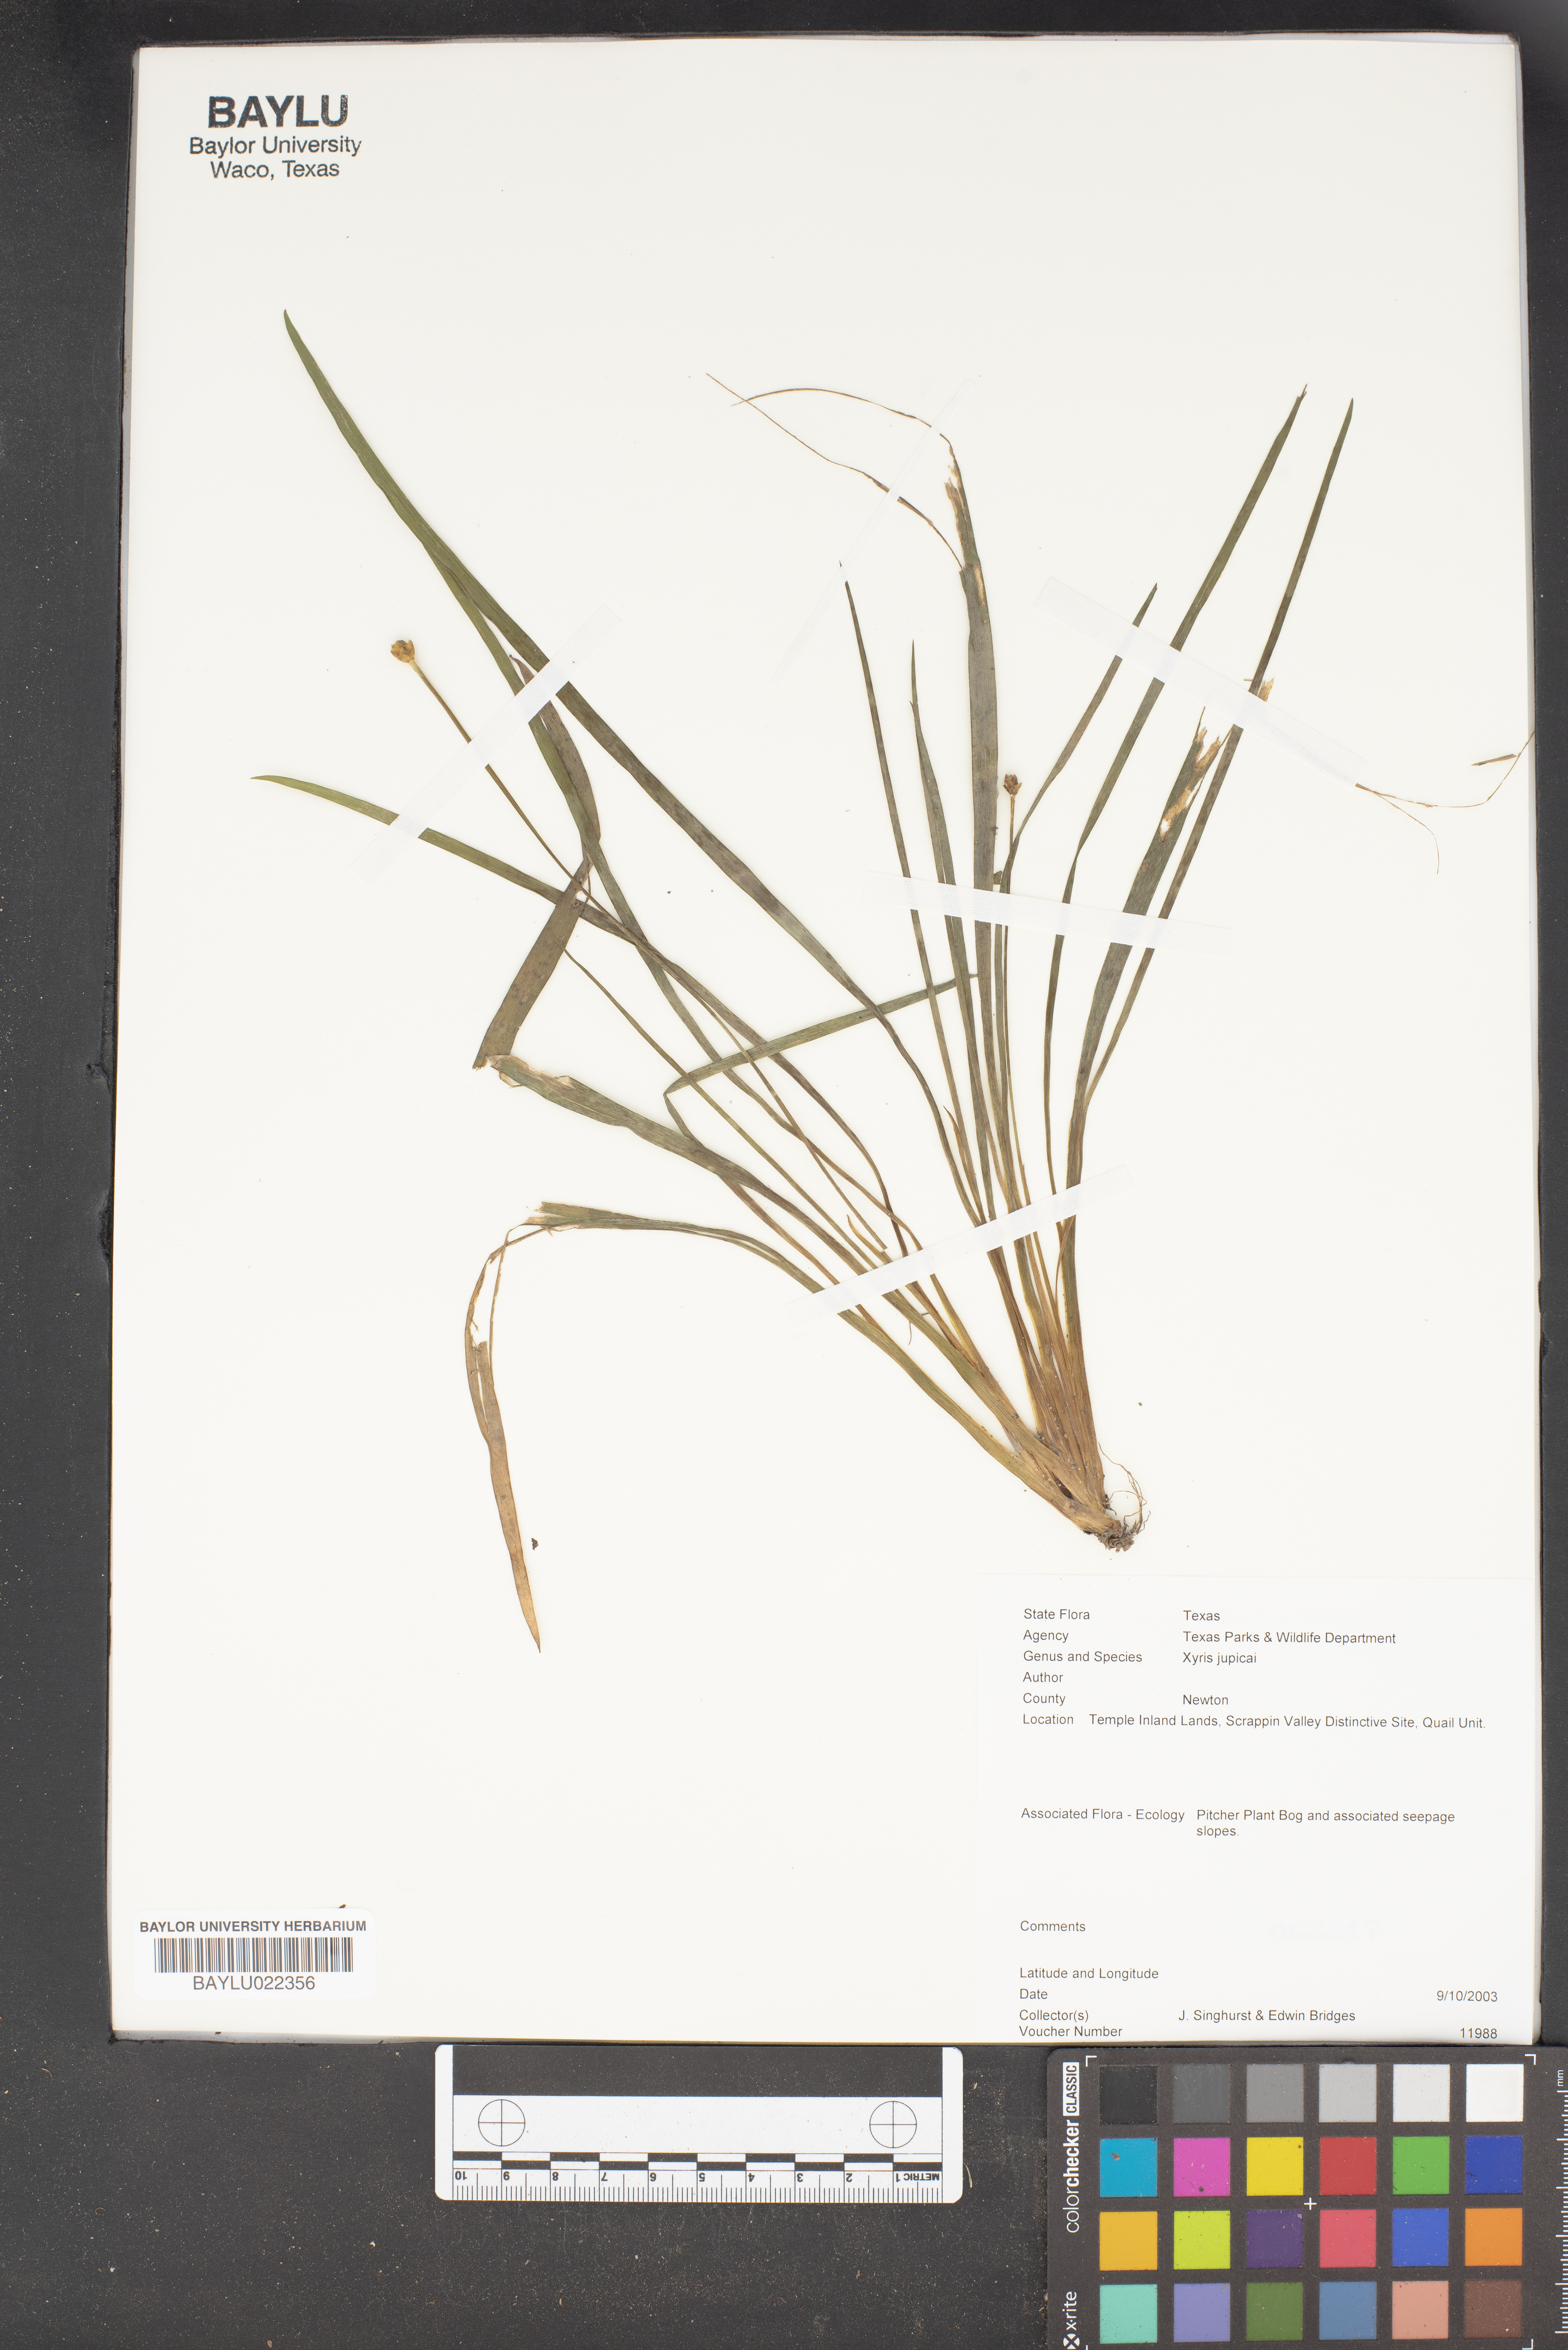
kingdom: Plantae
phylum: Tracheophyta
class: Liliopsida
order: Poales
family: Xyridaceae
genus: Xyris
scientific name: Xyris jupicai
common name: Richard's yelloweyed grass
